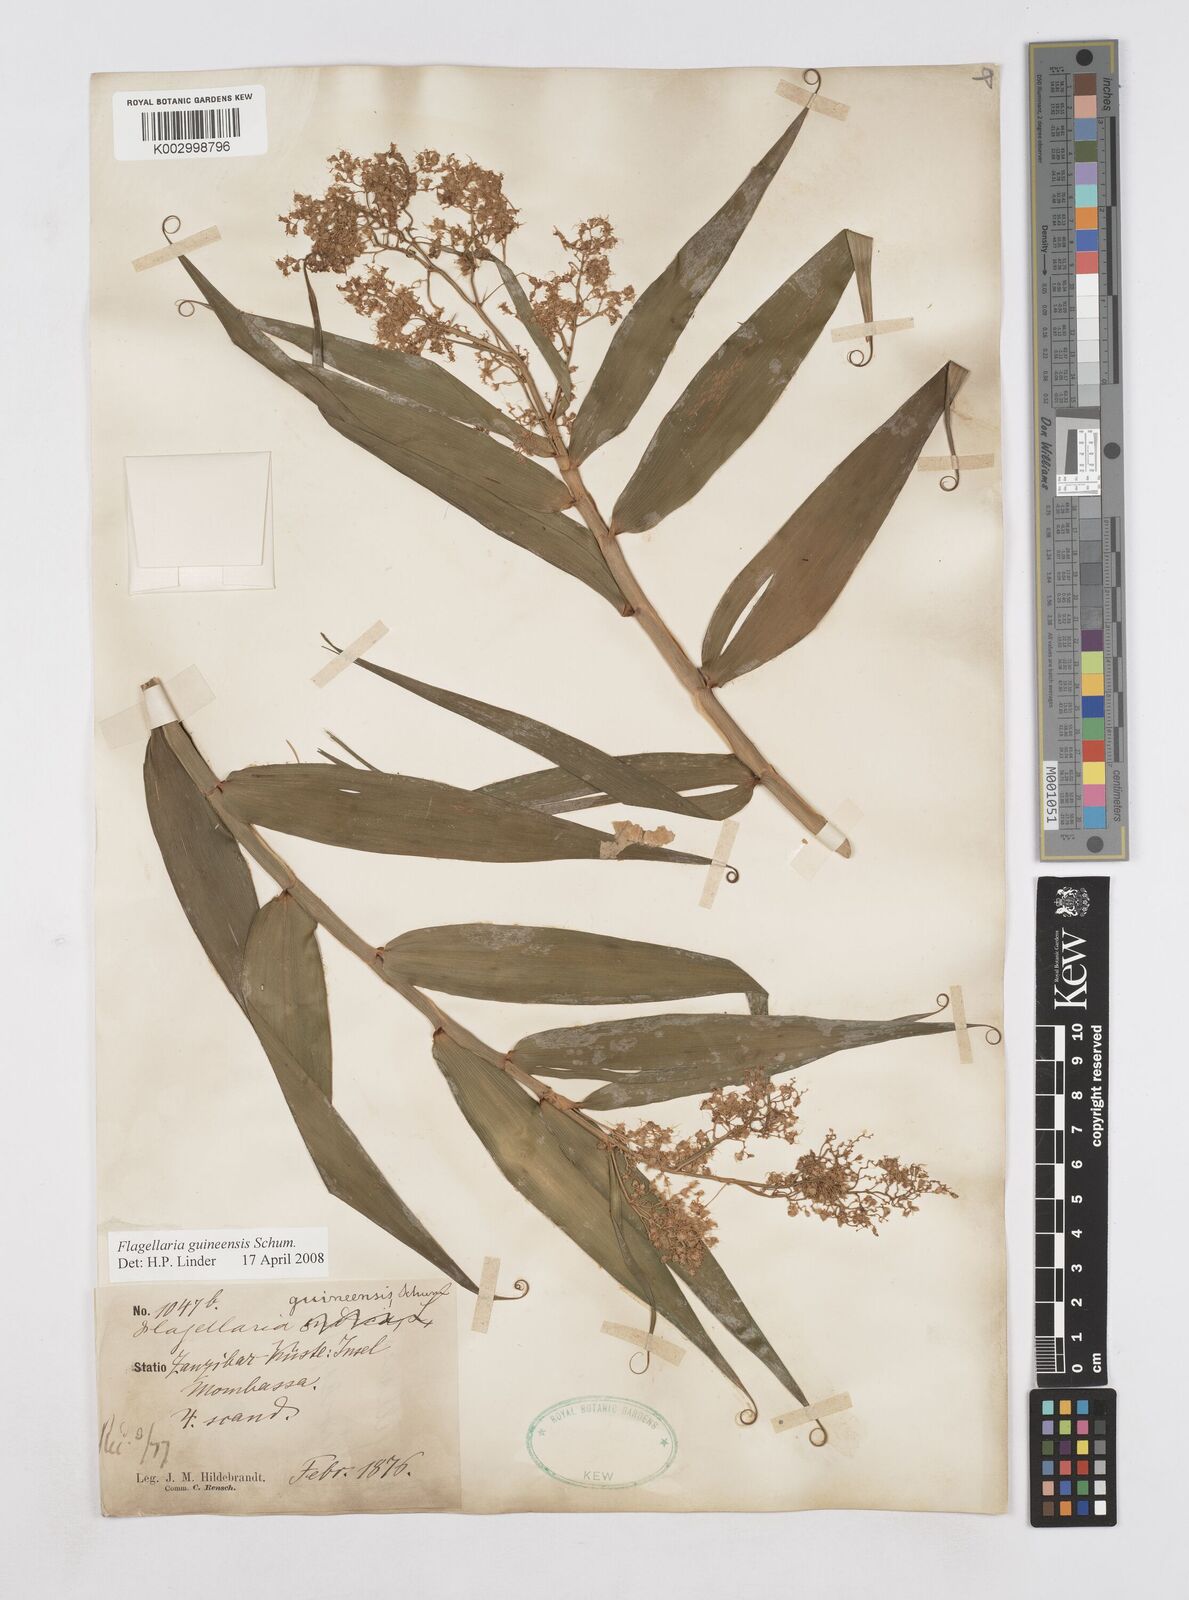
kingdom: Plantae
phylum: Tracheophyta
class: Liliopsida
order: Poales
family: Flagellariaceae
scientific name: Flagellariaceae
